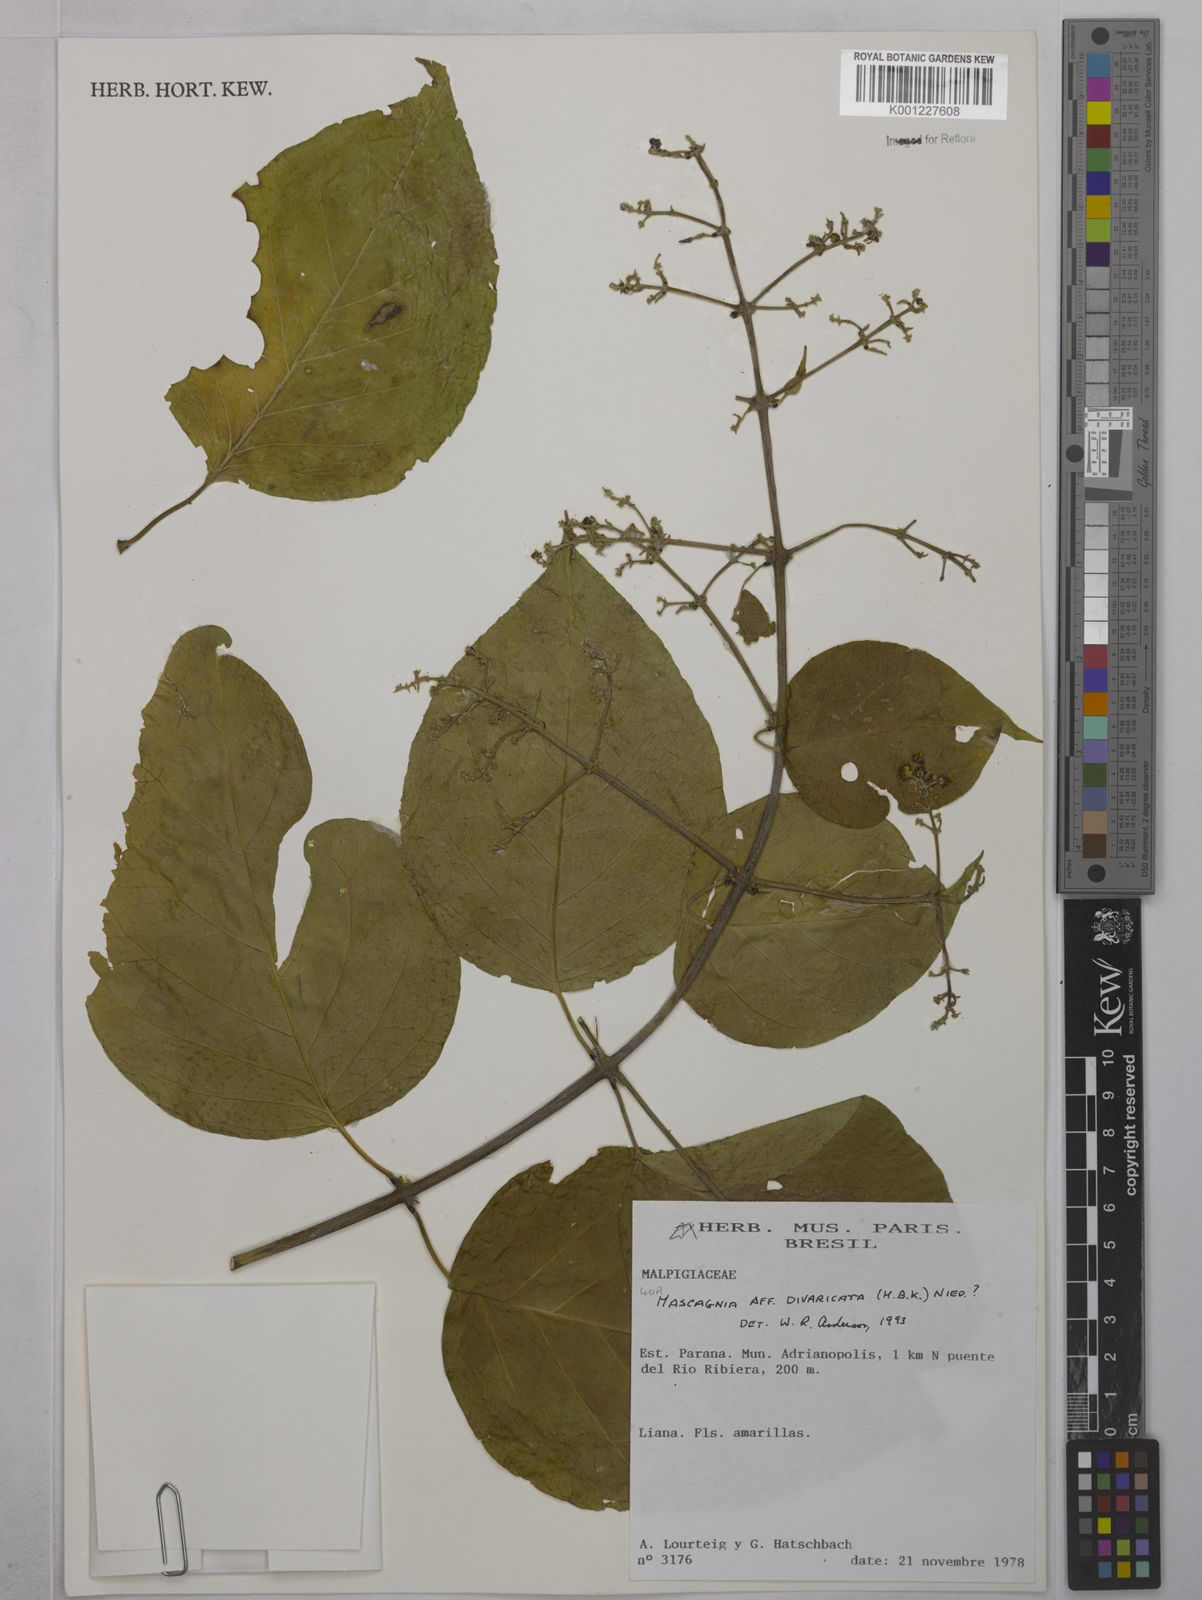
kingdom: Plantae
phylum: Tracheophyta
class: Magnoliopsida
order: Malpighiales
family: Malpighiaceae
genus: Mascagnia
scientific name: Mascagnia divaricata
